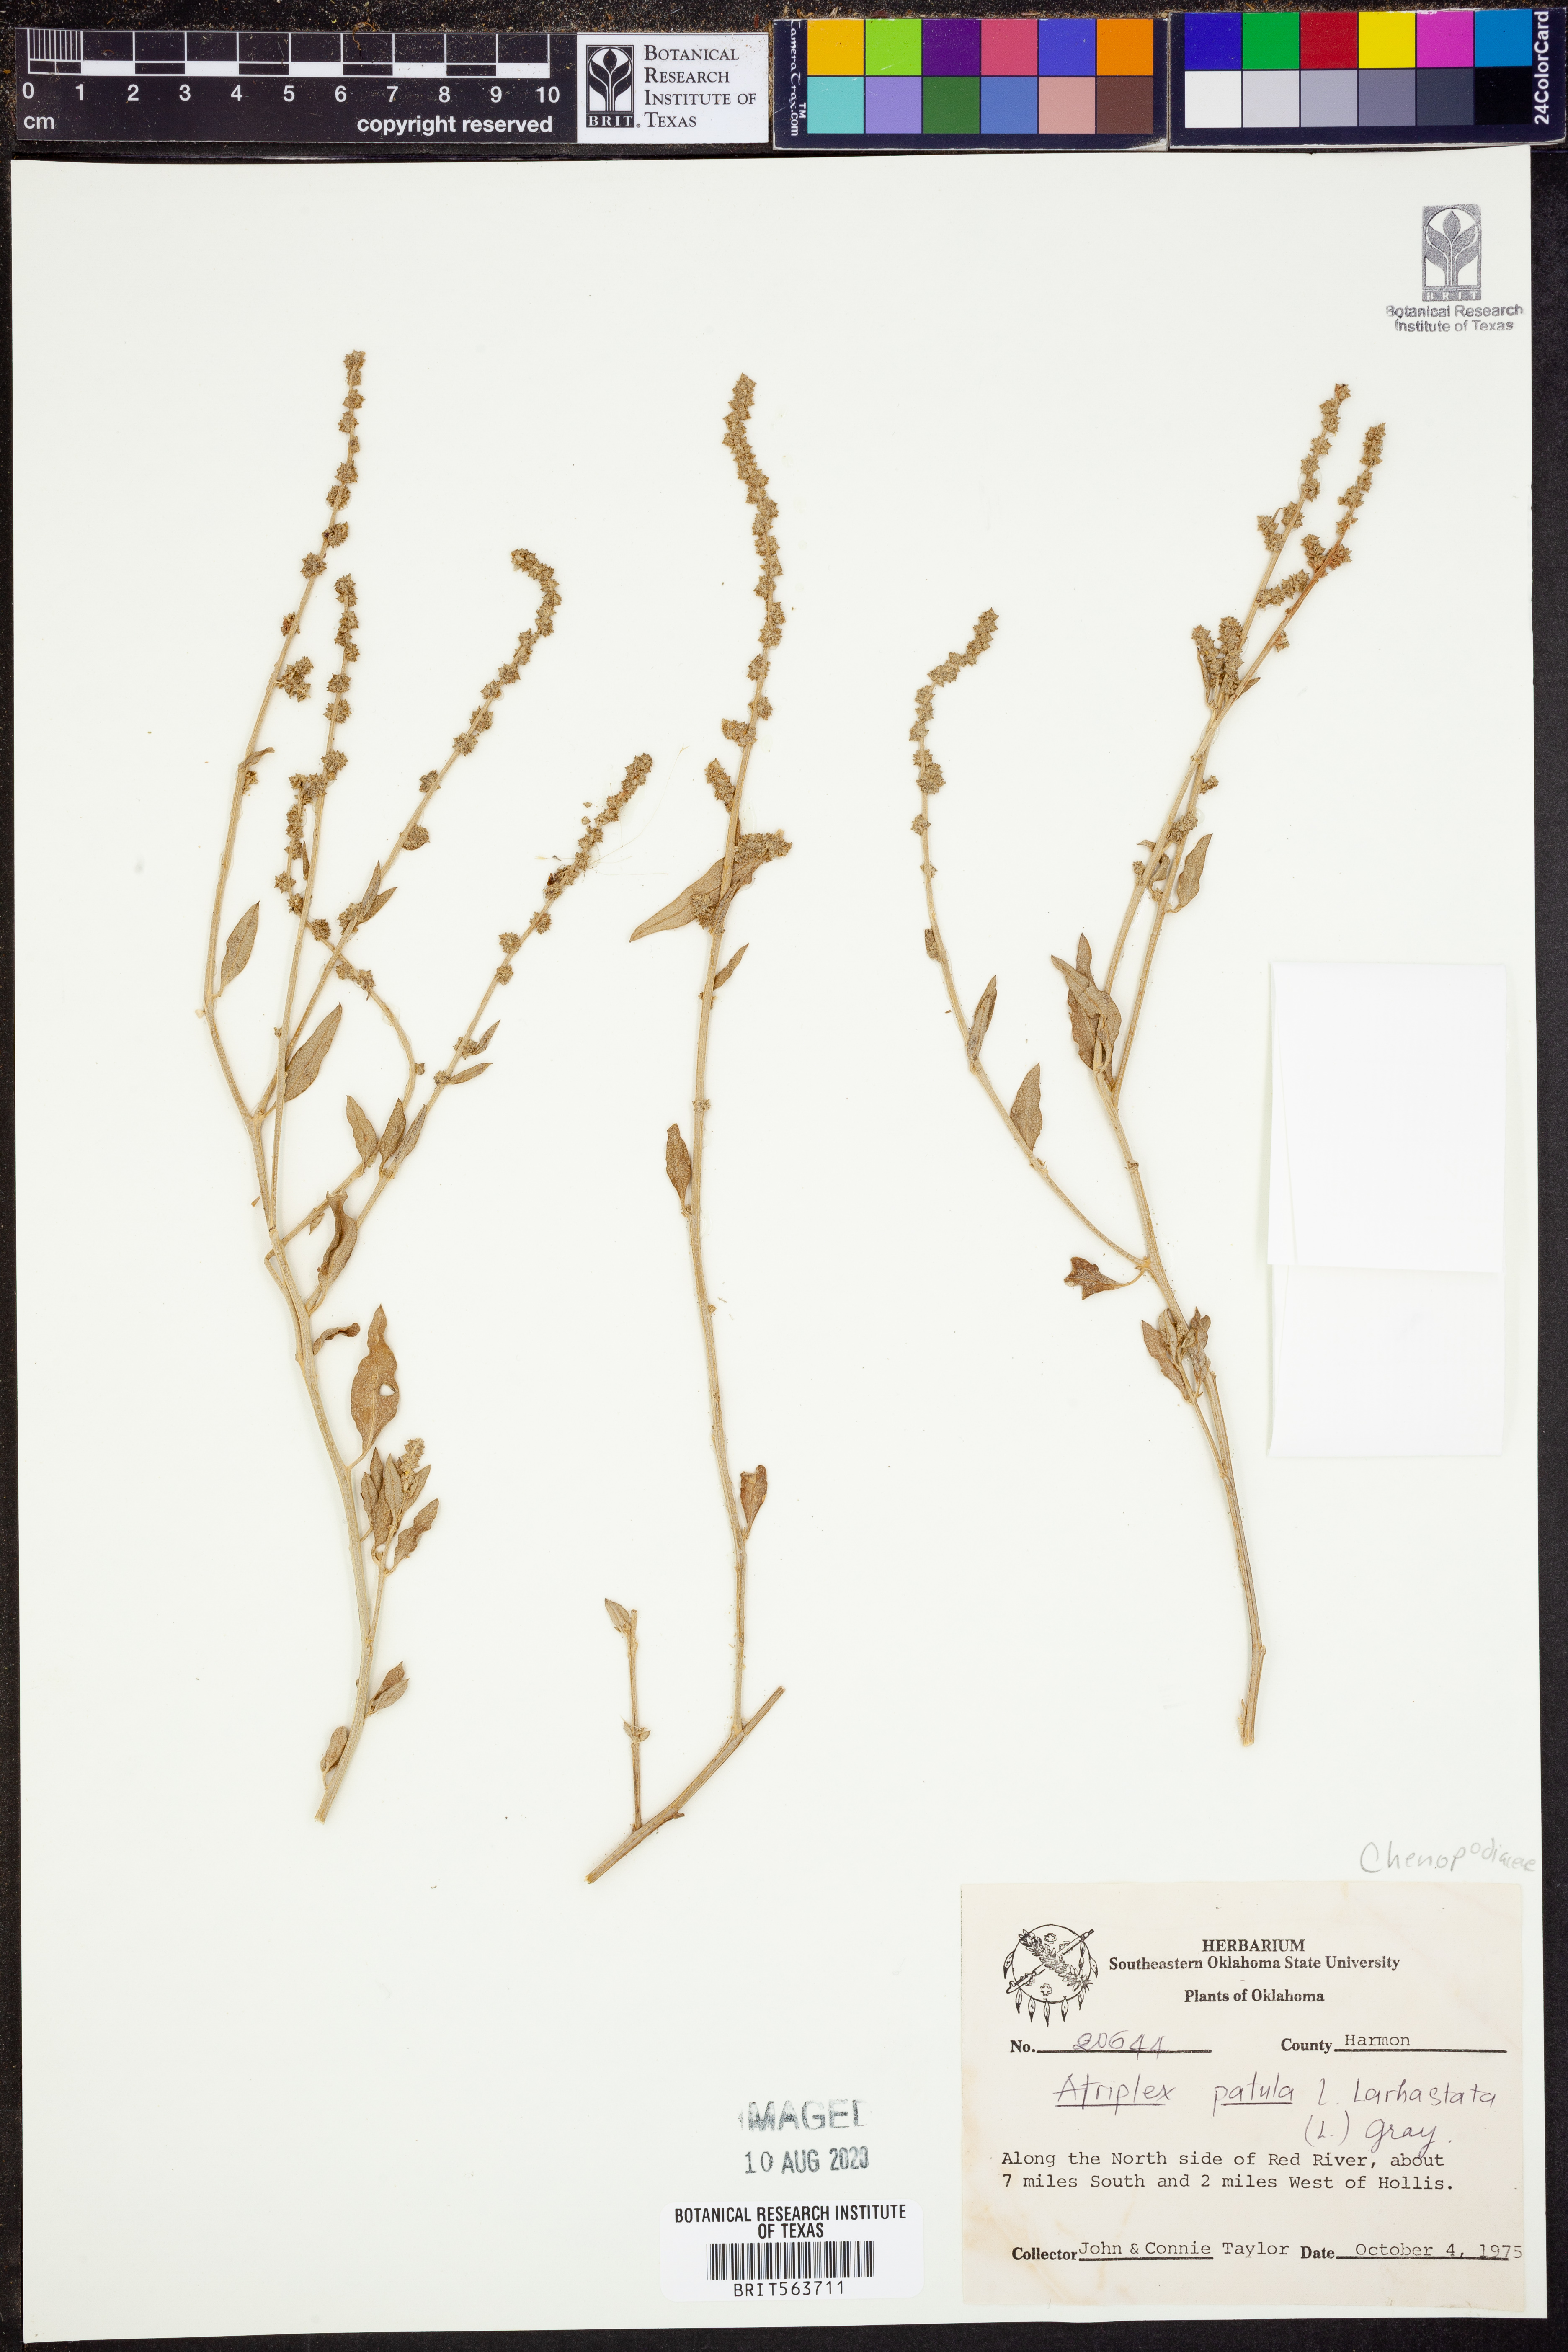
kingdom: Plantae
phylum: Tracheophyta
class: Magnoliopsida
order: Caryophyllales
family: Amaranthaceae
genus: Atriplex
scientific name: Atriplex
